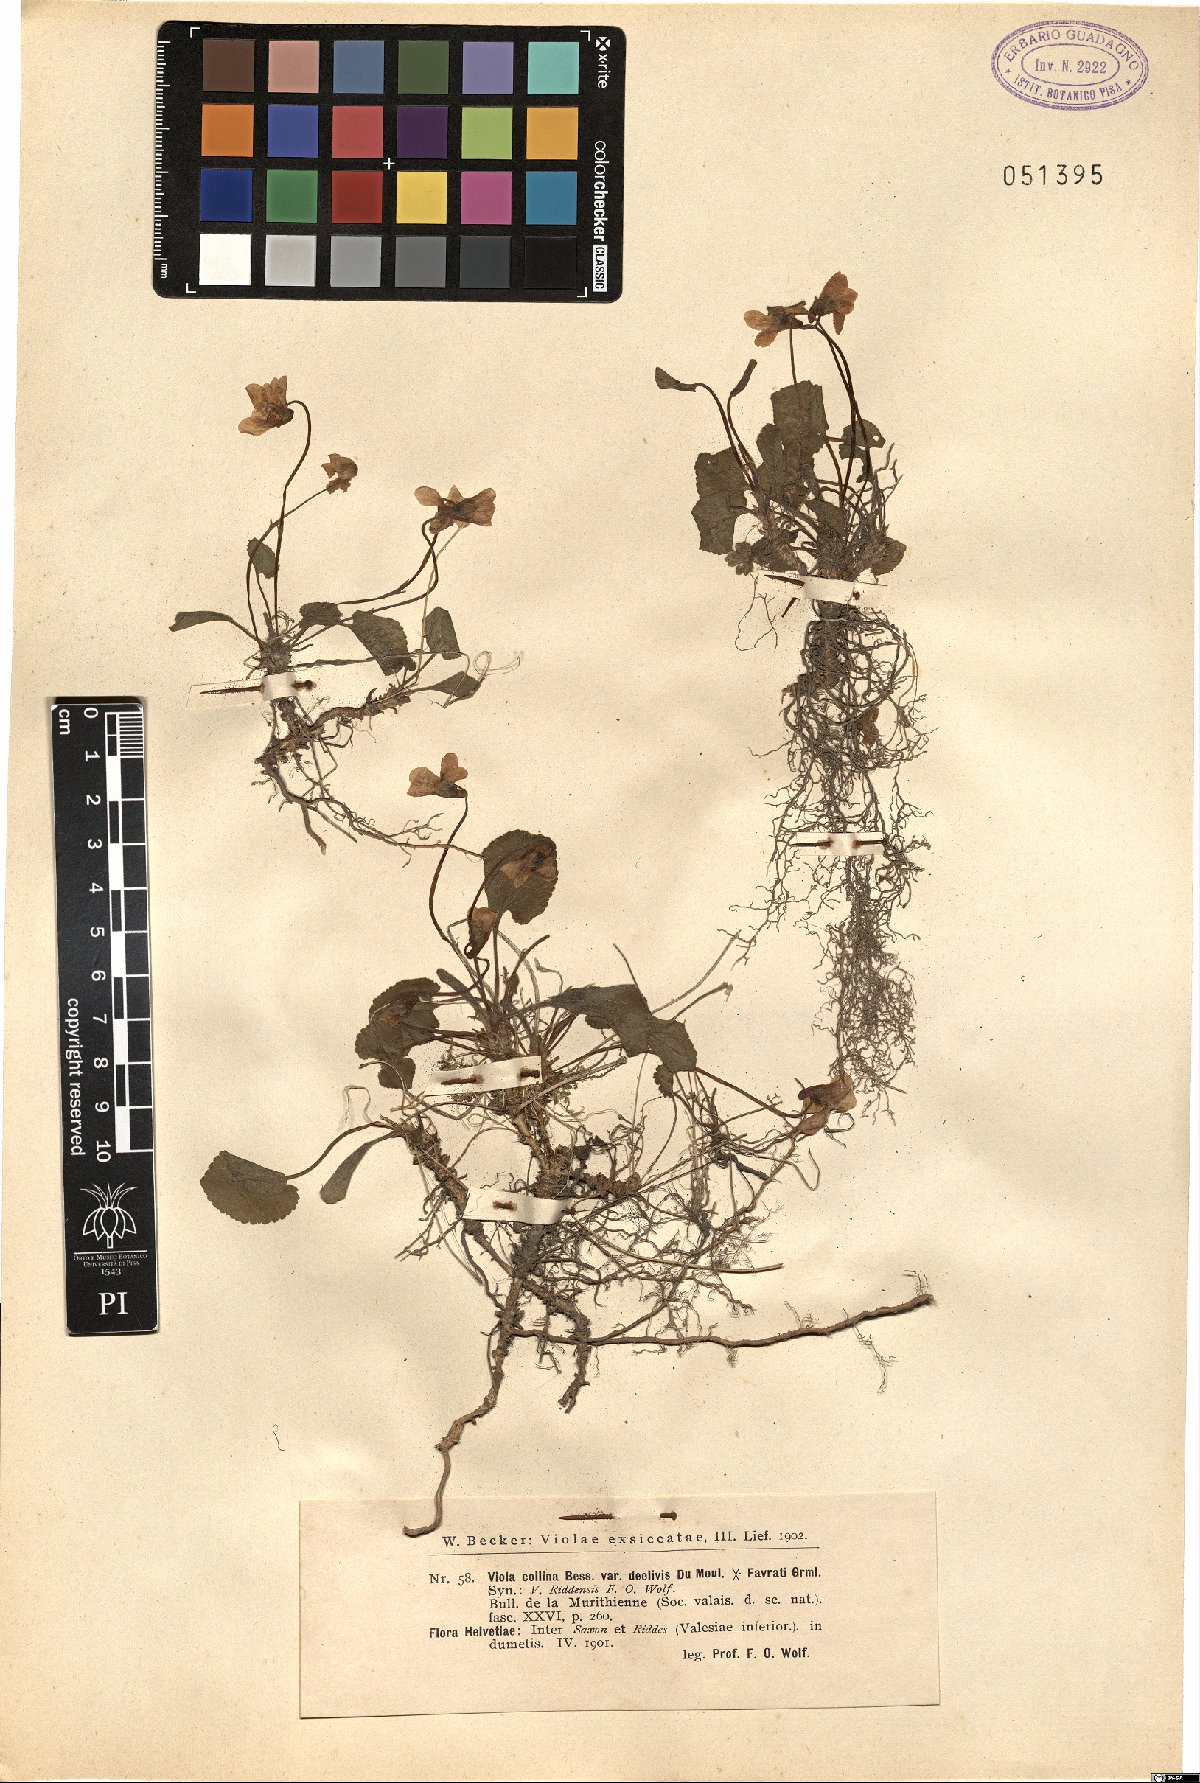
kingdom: Plantae
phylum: Tracheophyta
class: Magnoliopsida
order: Malpighiales
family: Violaceae
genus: Viola
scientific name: Viola riddensis
